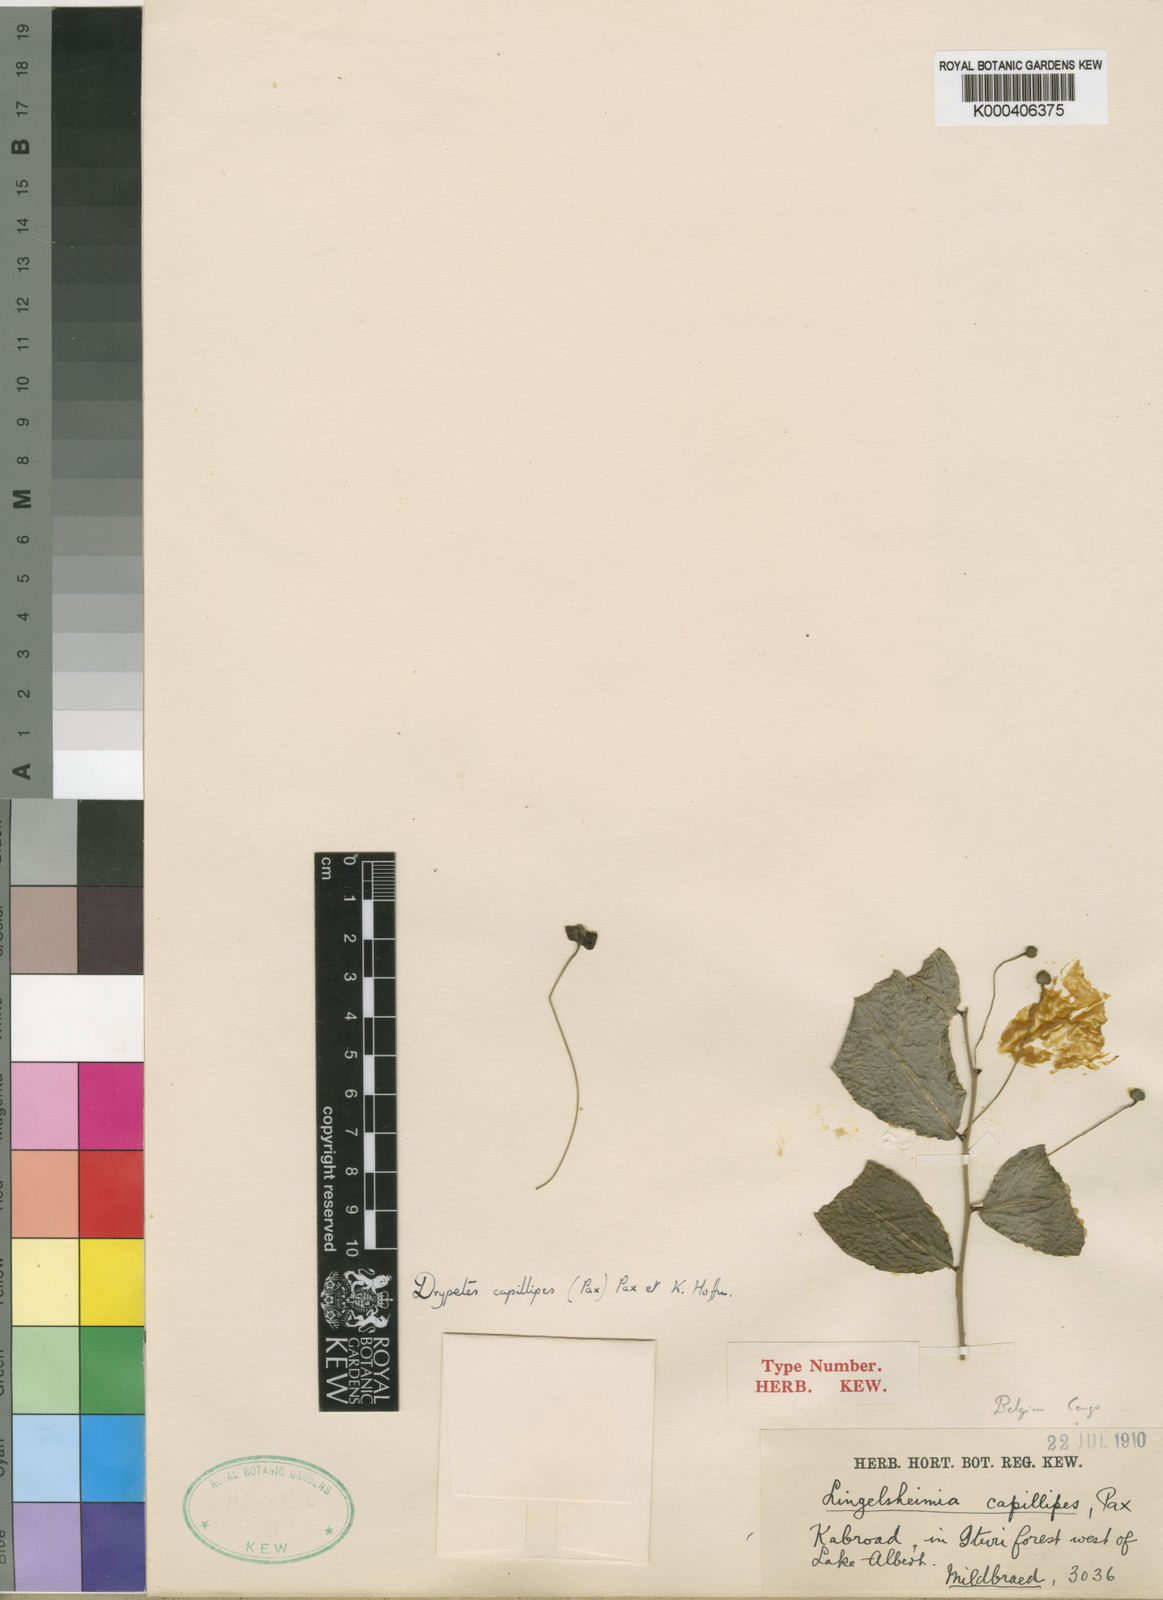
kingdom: Plantae
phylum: Tracheophyta
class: Magnoliopsida
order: Malpighiales
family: Putranjivaceae
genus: Drypetes
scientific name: Drypetes capillipes
